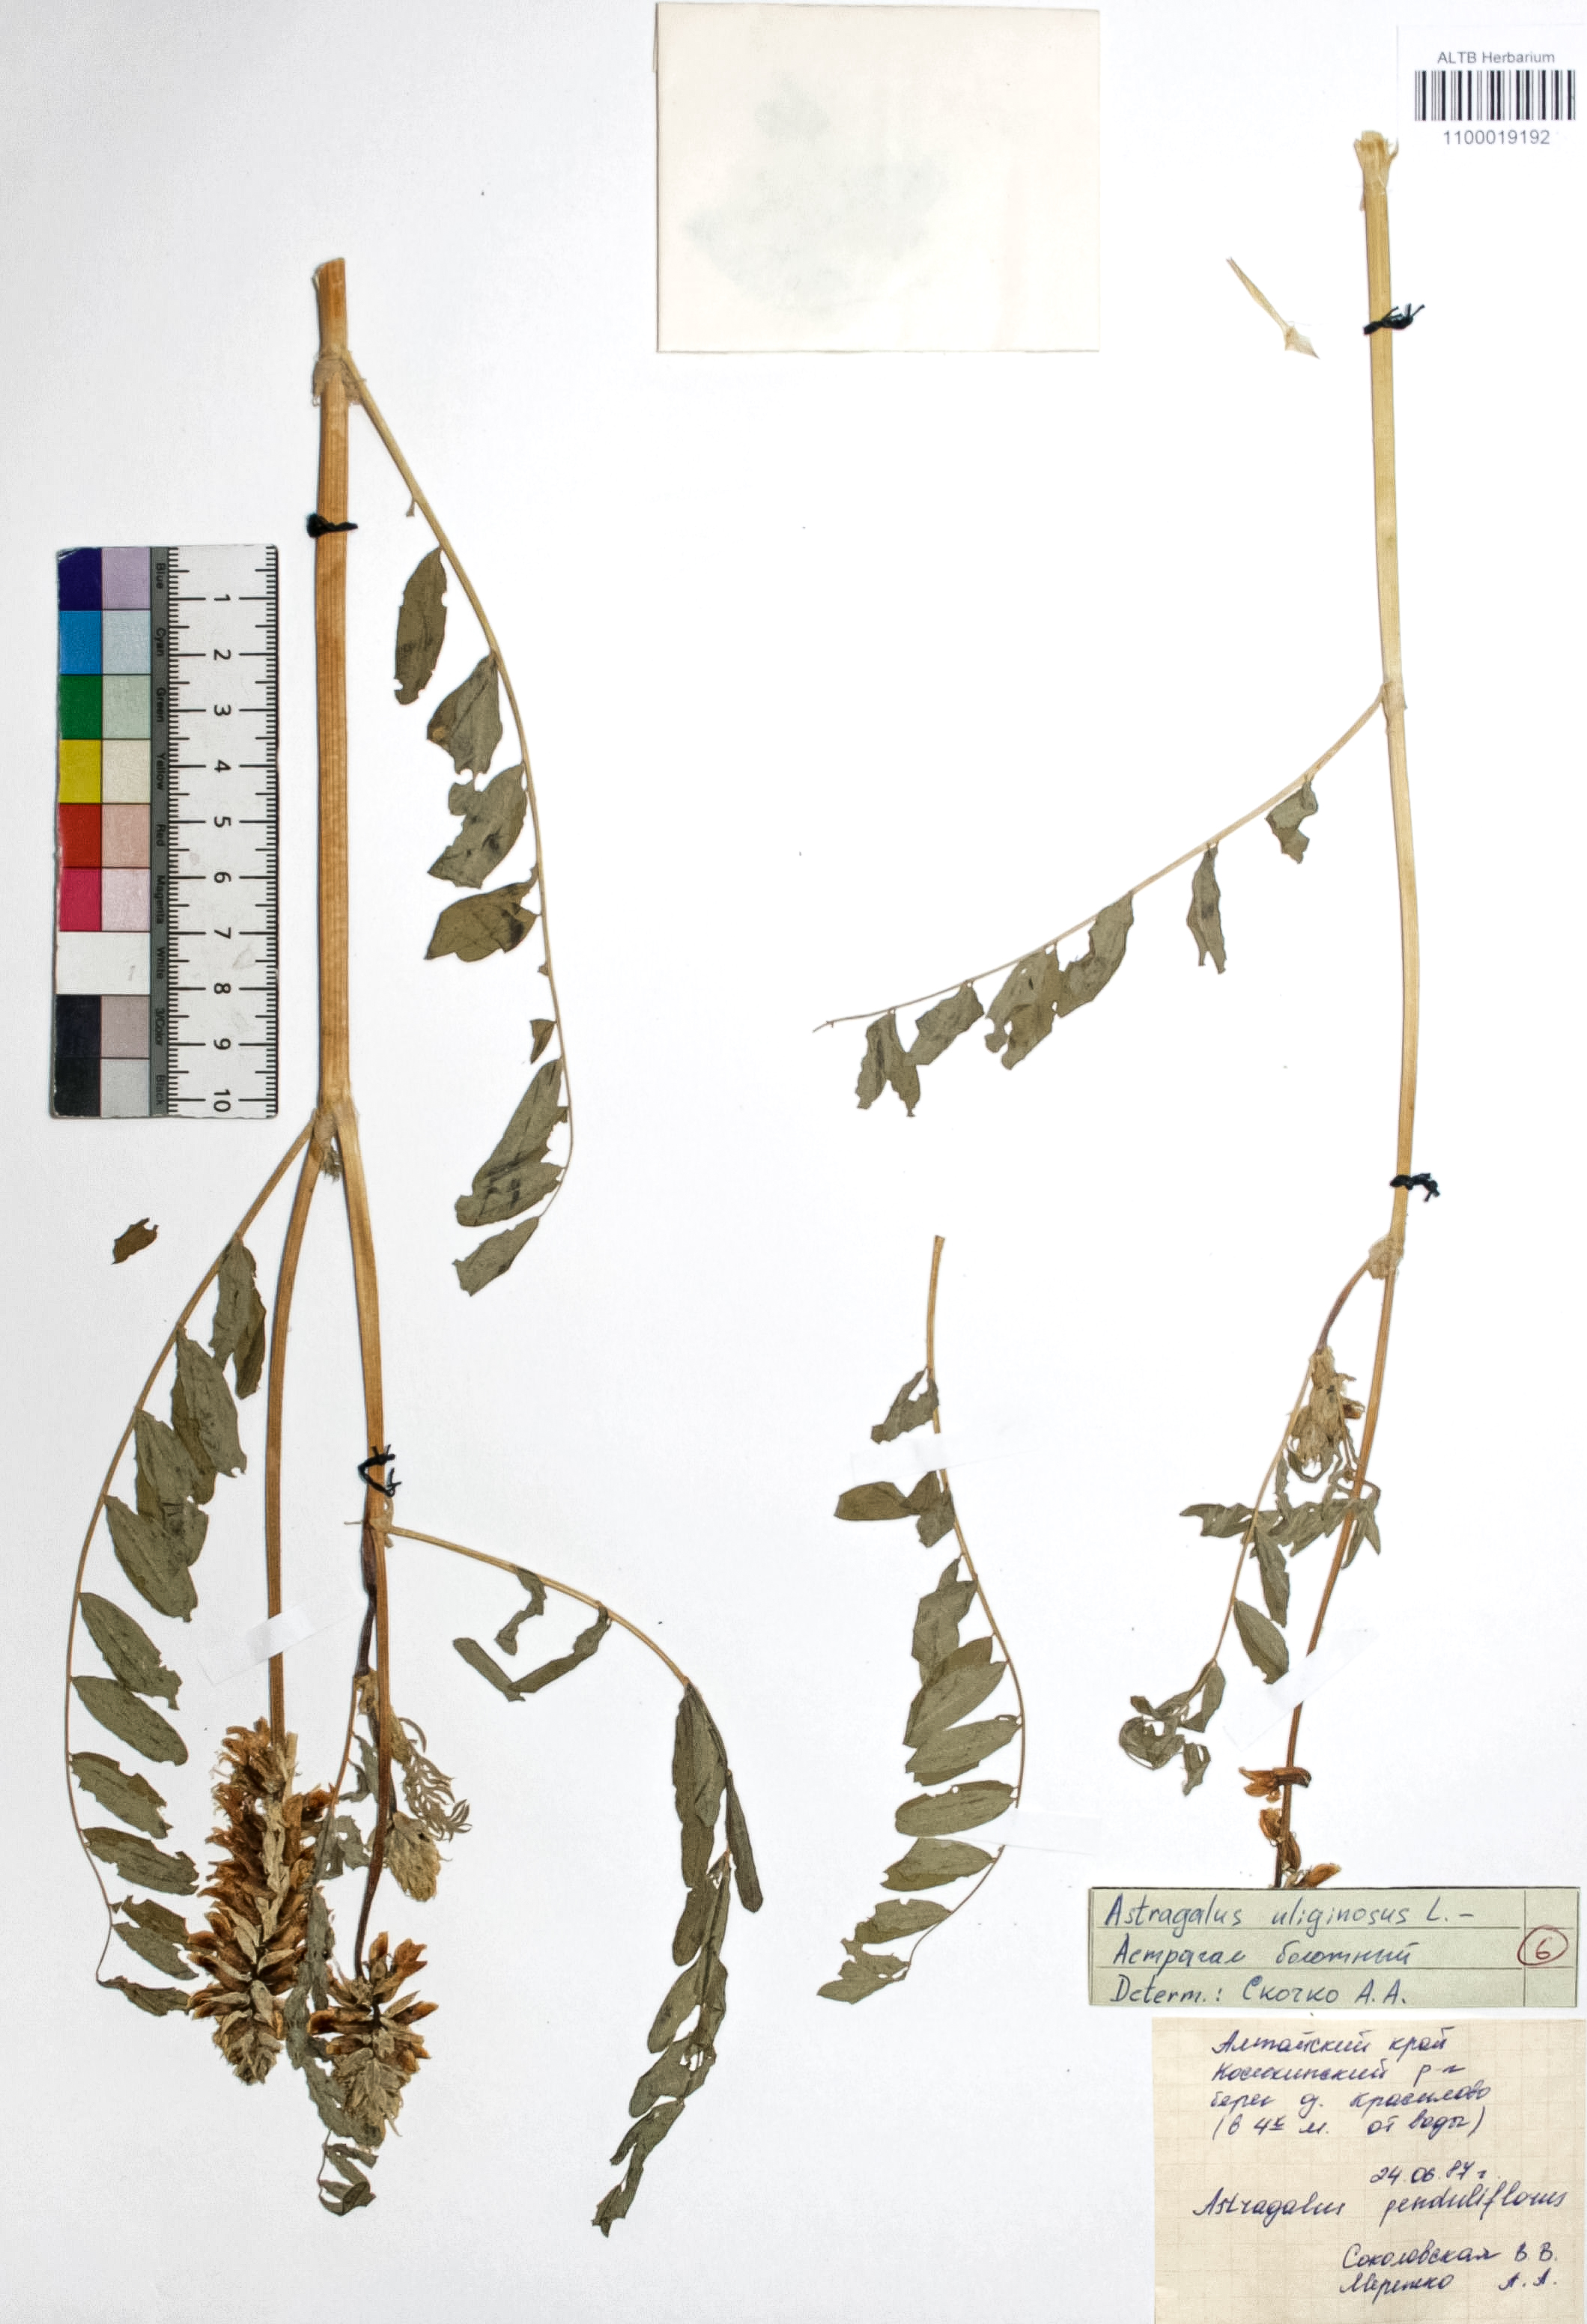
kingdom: Plantae
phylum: Tracheophyta
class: Magnoliopsida
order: Fabales
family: Fabaceae
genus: Astragalus
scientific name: Astragalus uliginosus
